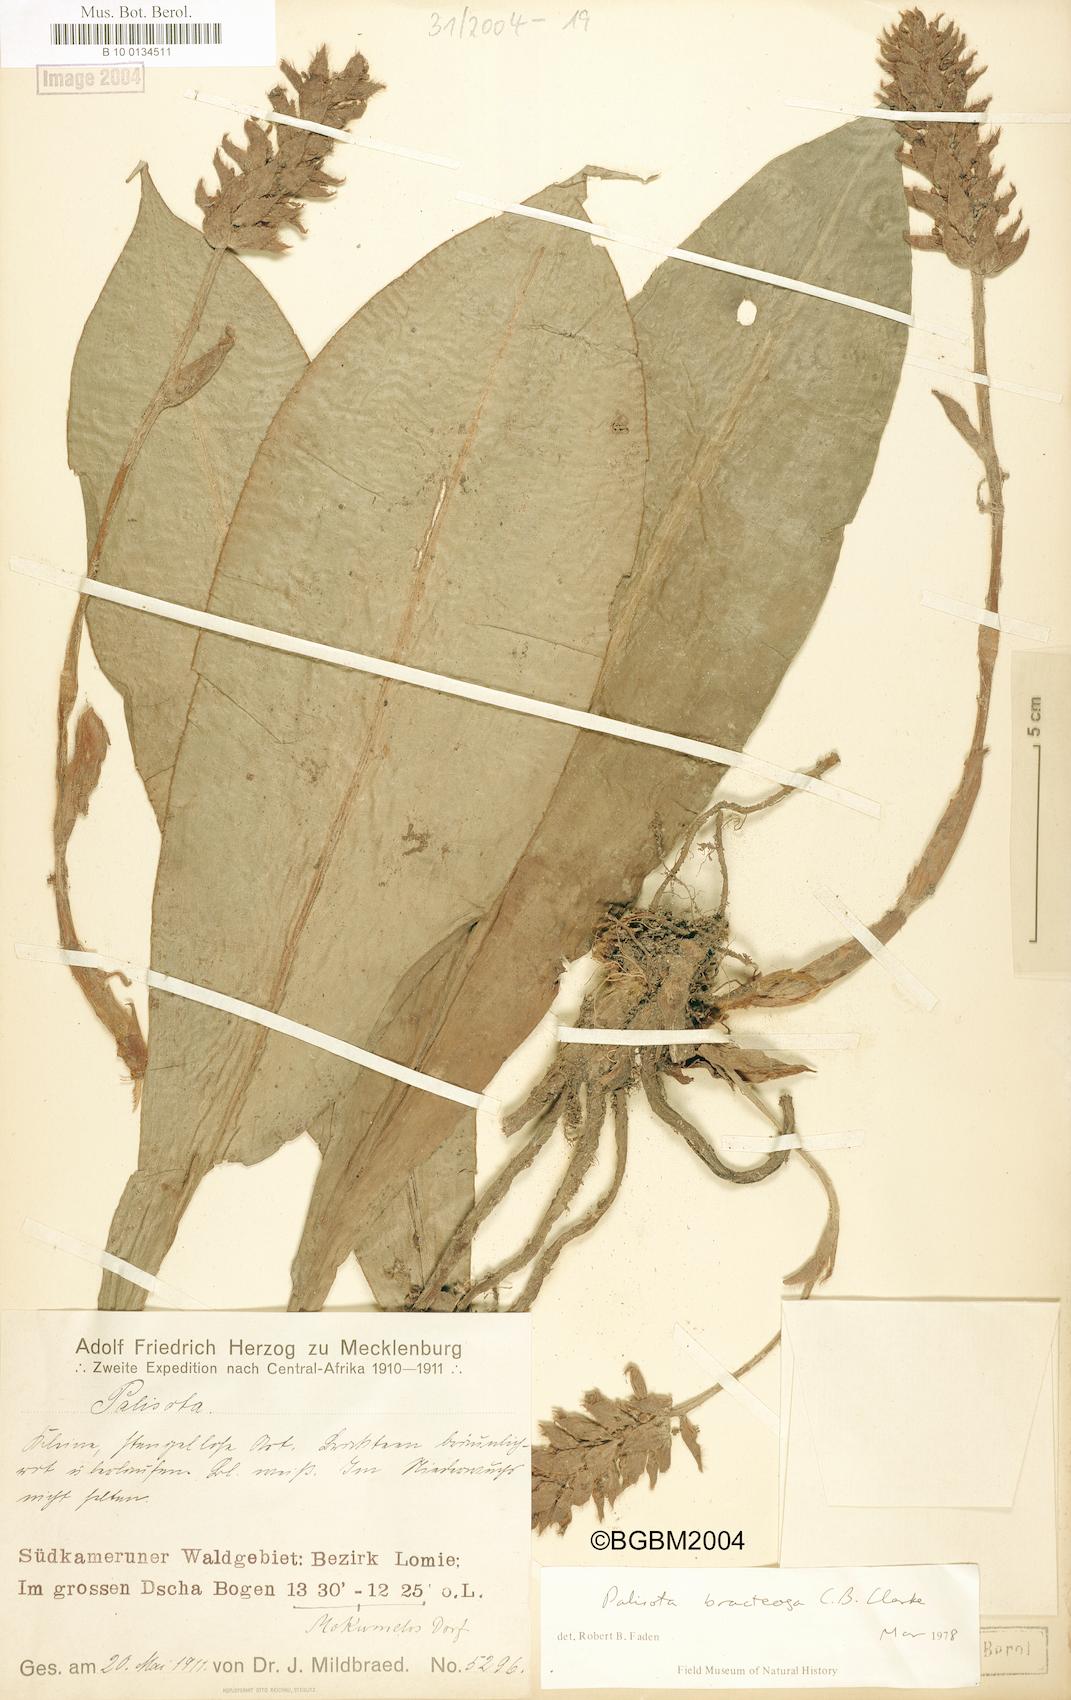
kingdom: Plantae
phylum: Tracheophyta
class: Liliopsida
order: Commelinales
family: Commelinaceae
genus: Palisota
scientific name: Palisota bracteosa
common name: Palisota
